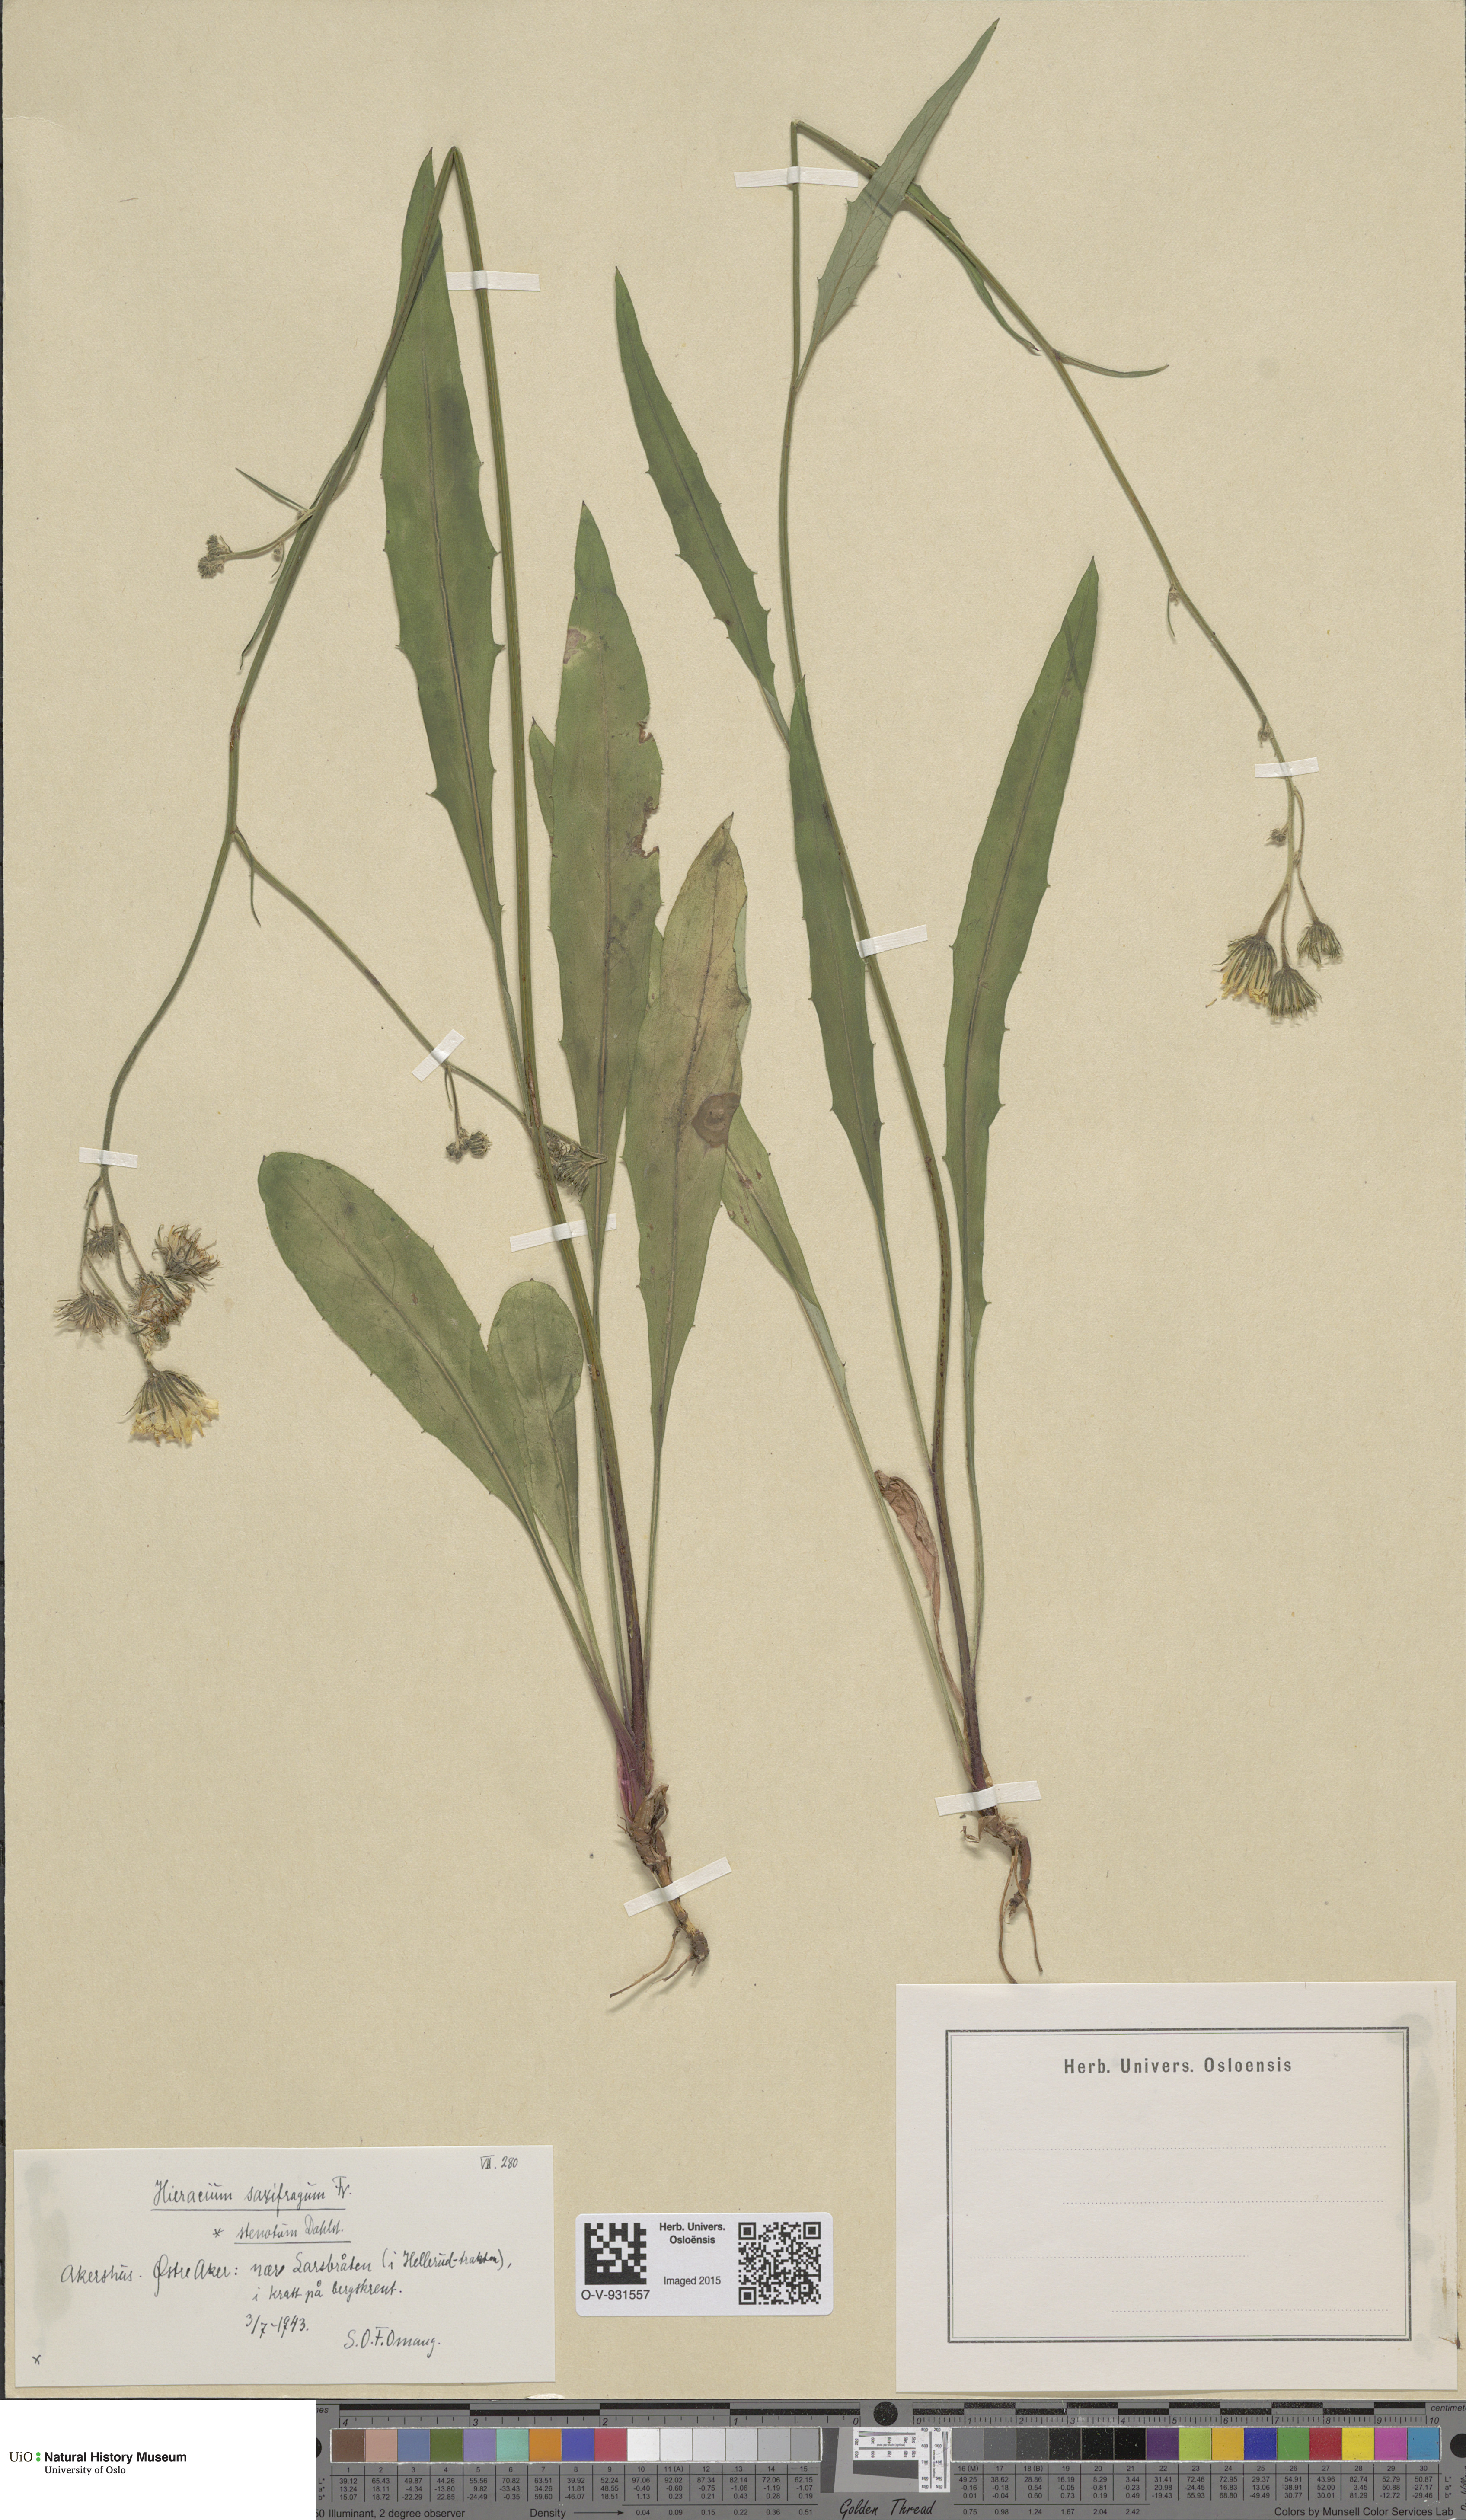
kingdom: Plantae
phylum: Tracheophyta
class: Magnoliopsida
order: Asterales
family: Asteraceae
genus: Hieracium
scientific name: Hieracium saxifragum
